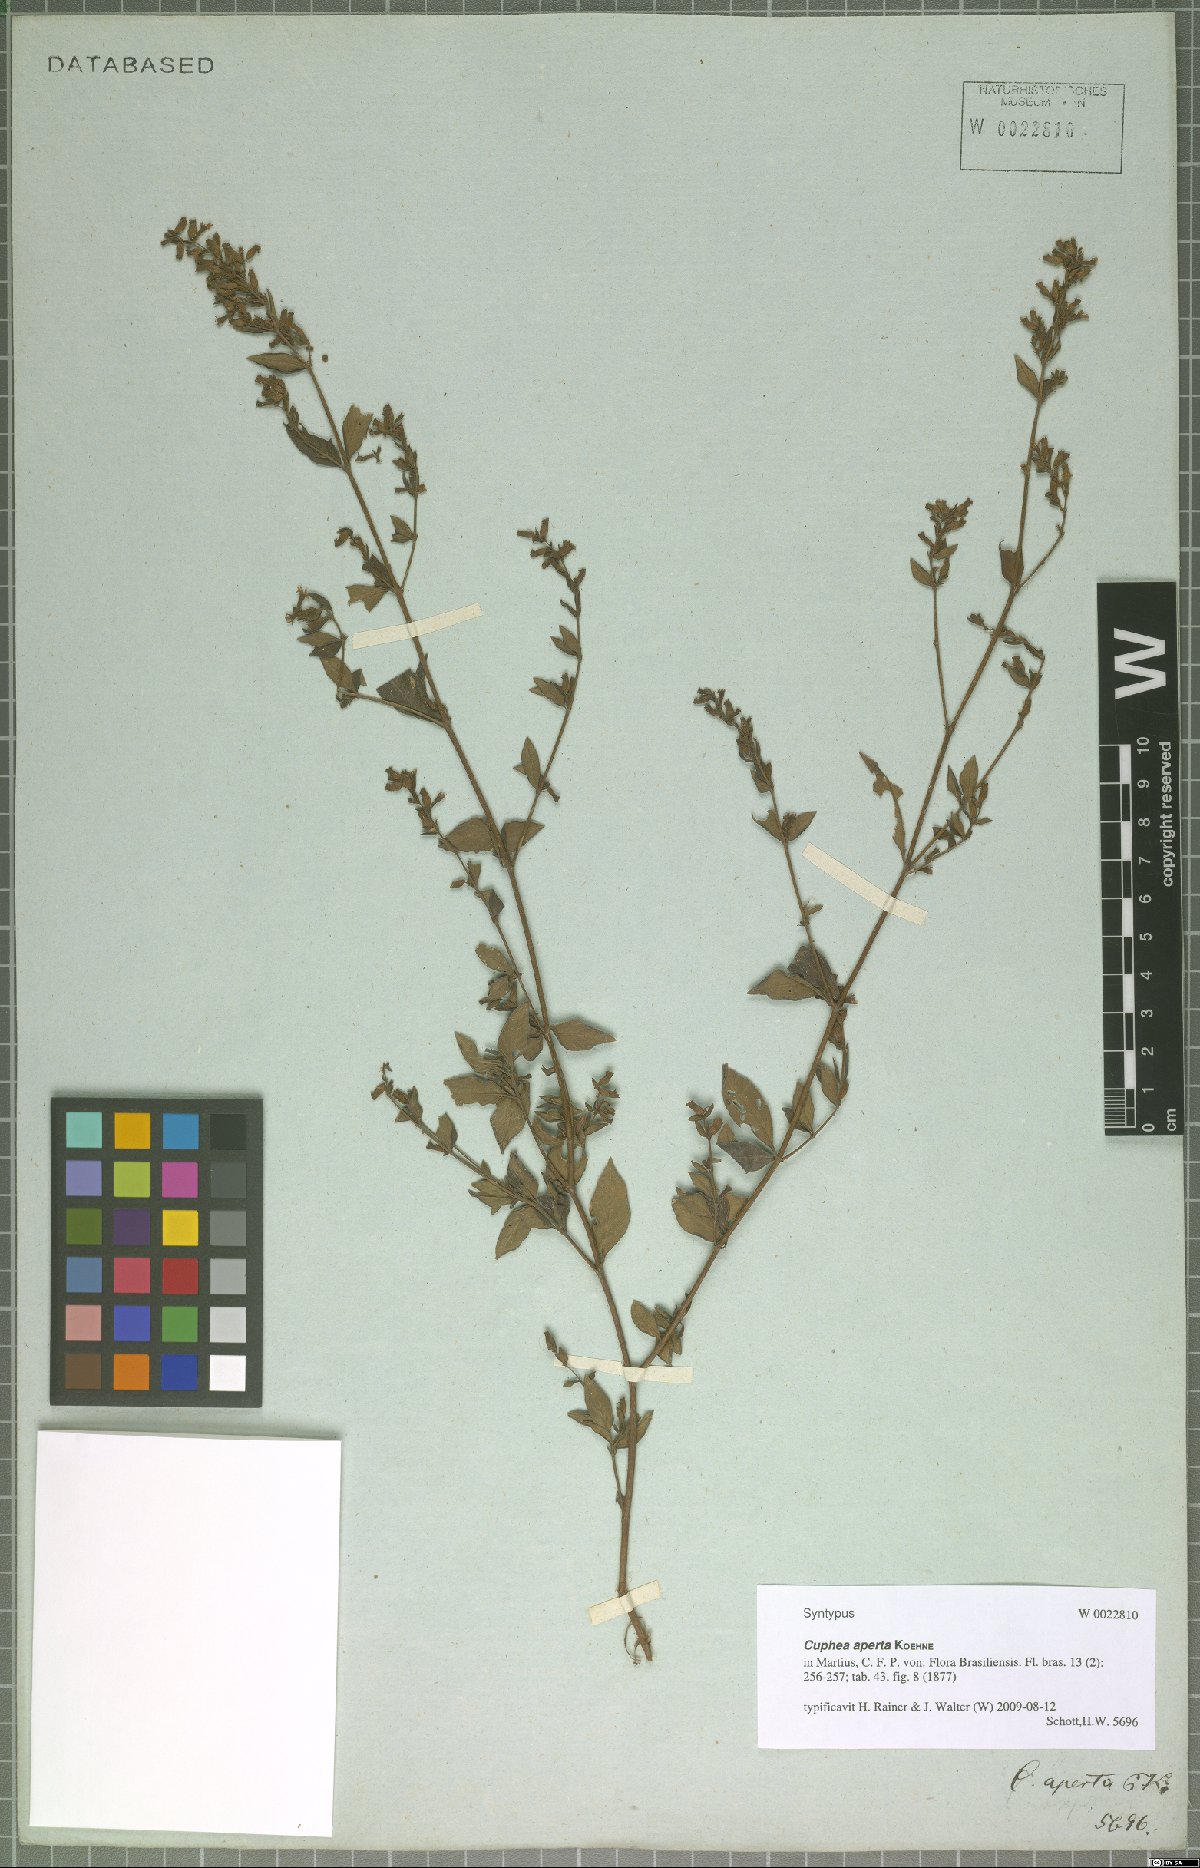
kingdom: Plantae
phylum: Tracheophyta
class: Magnoliopsida
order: Myrtales
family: Lythraceae
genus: Cuphea
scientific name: Cuphea aperta
